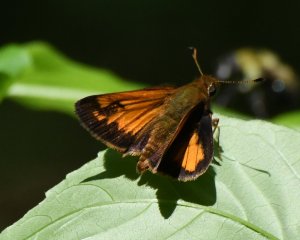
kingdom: Animalia
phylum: Arthropoda
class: Insecta
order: Lepidoptera
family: Hesperiidae
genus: Lon
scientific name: Lon hobomok
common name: Hobomok Skipper
